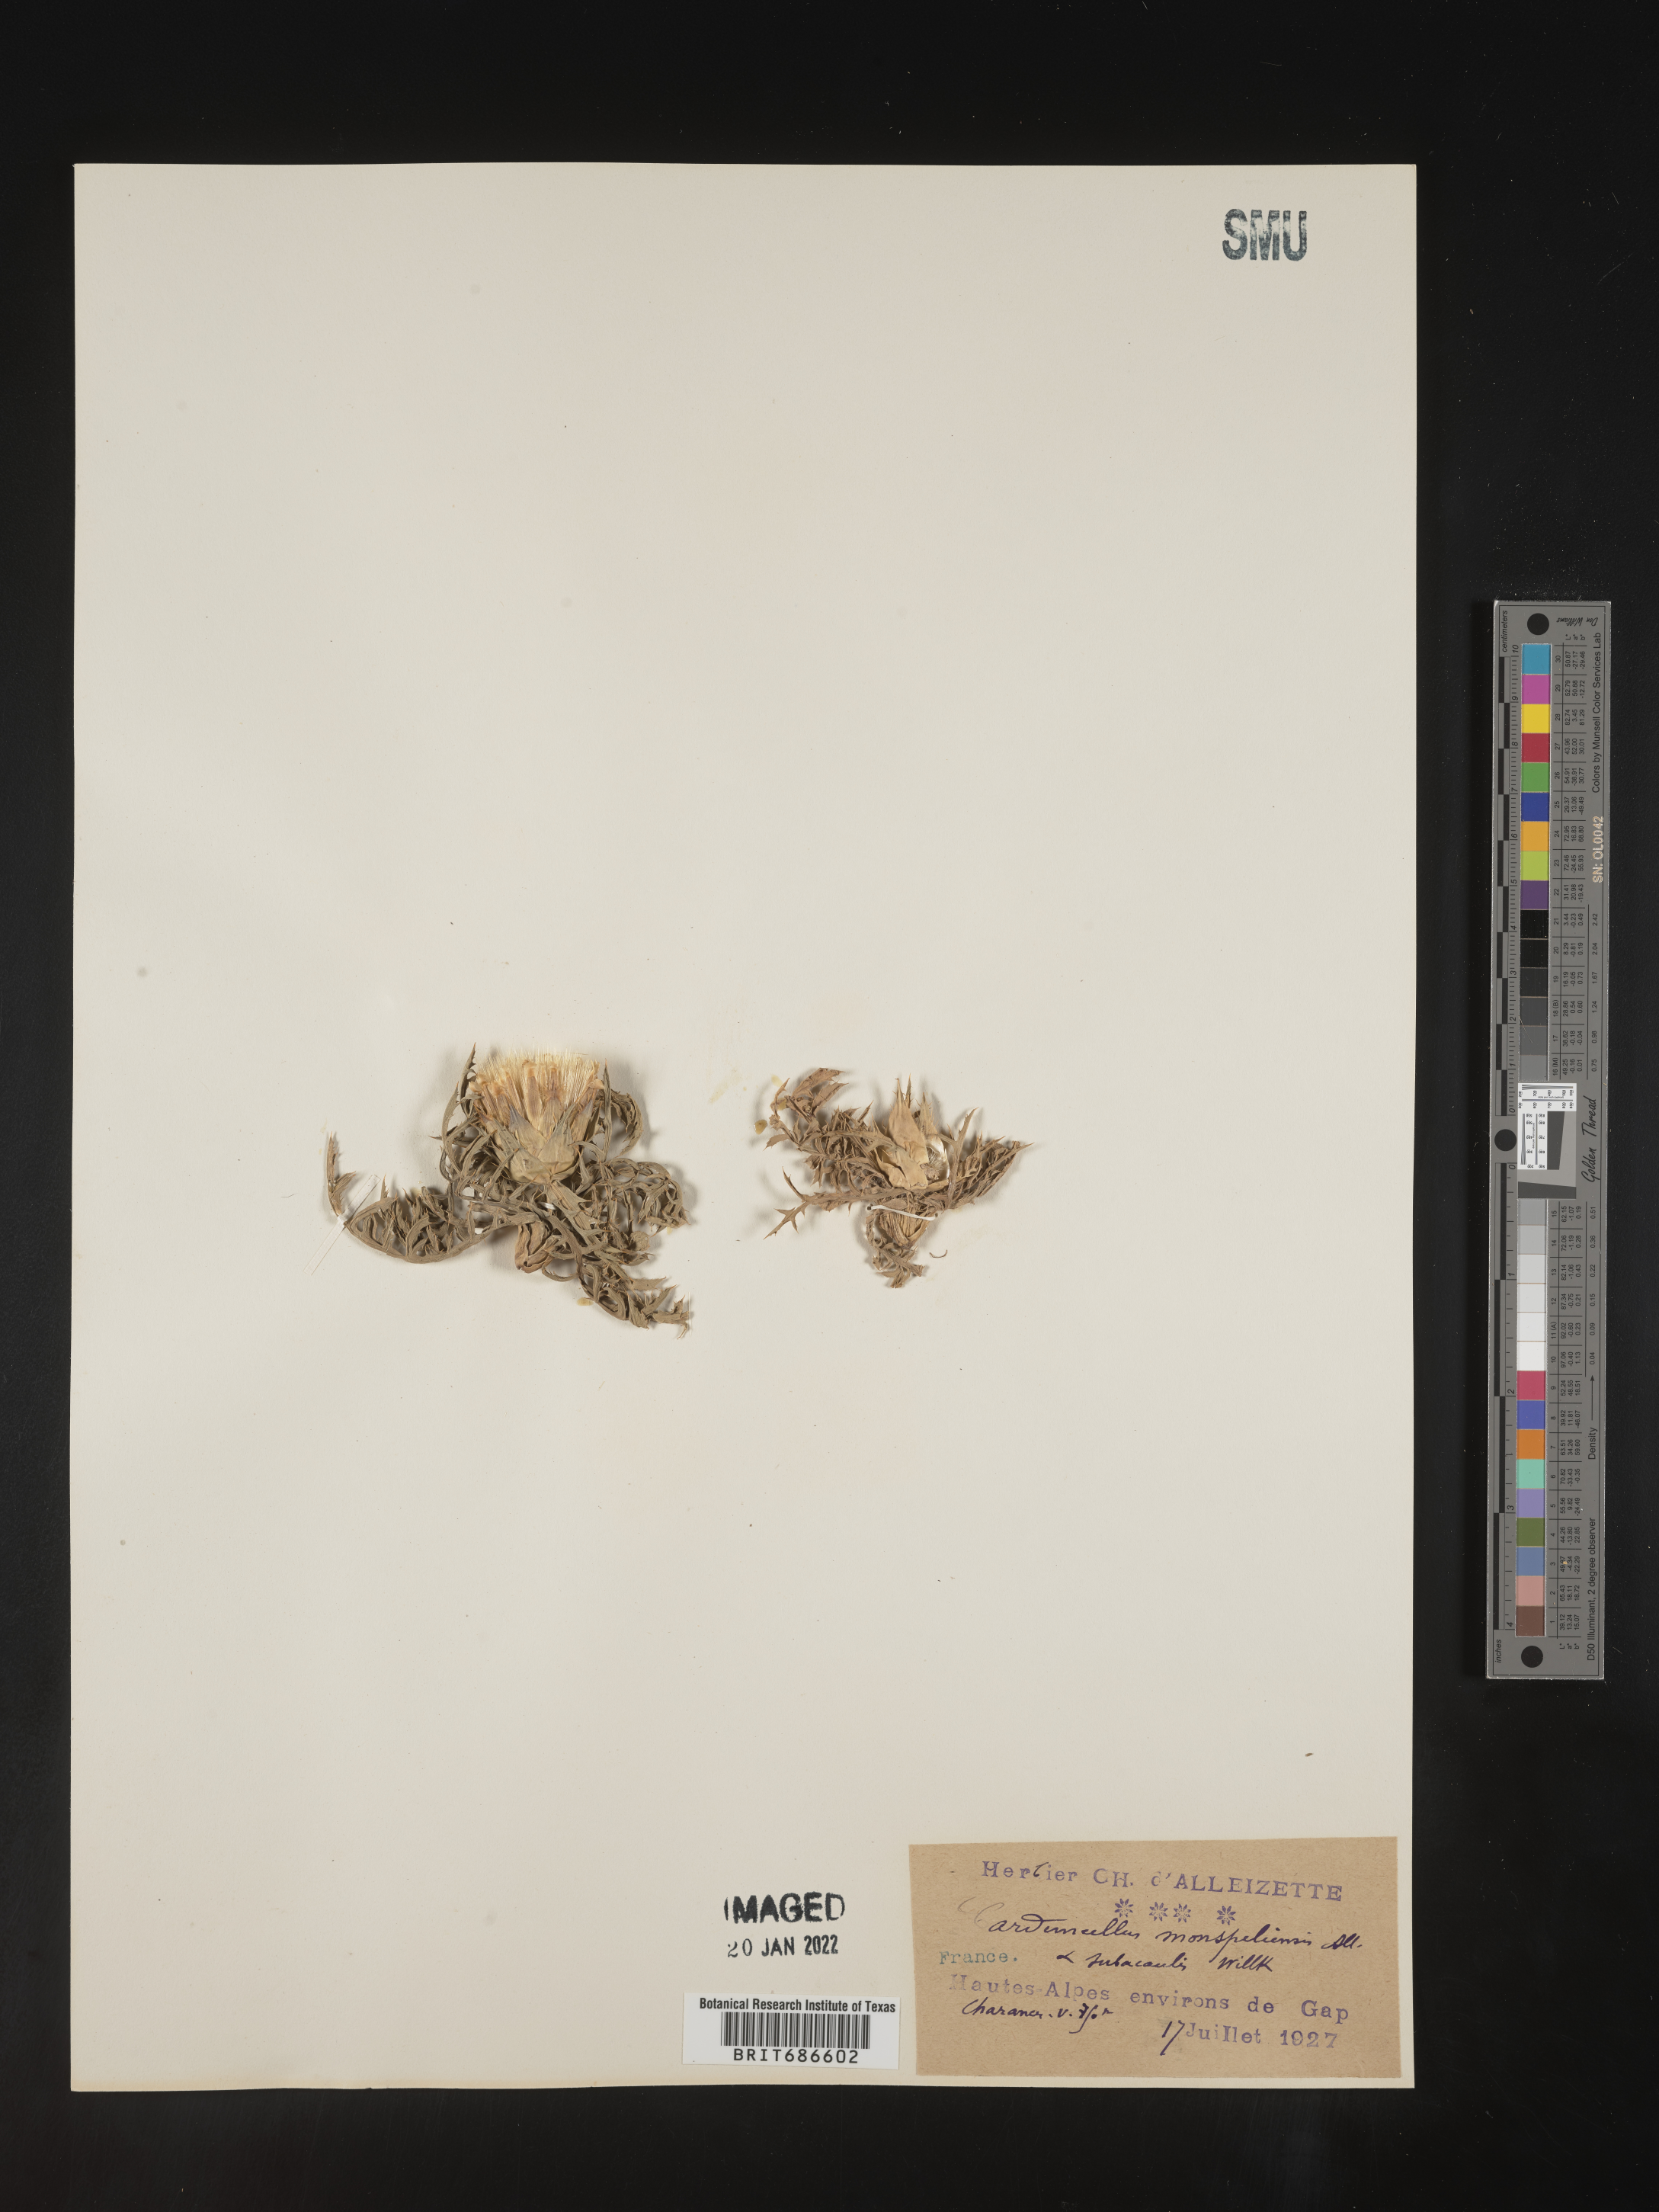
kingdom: Plantae
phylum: Tracheophyta
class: Magnoliopsida
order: Asterales
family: Asteraceae
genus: Carduncellus
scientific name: Carduncellus
